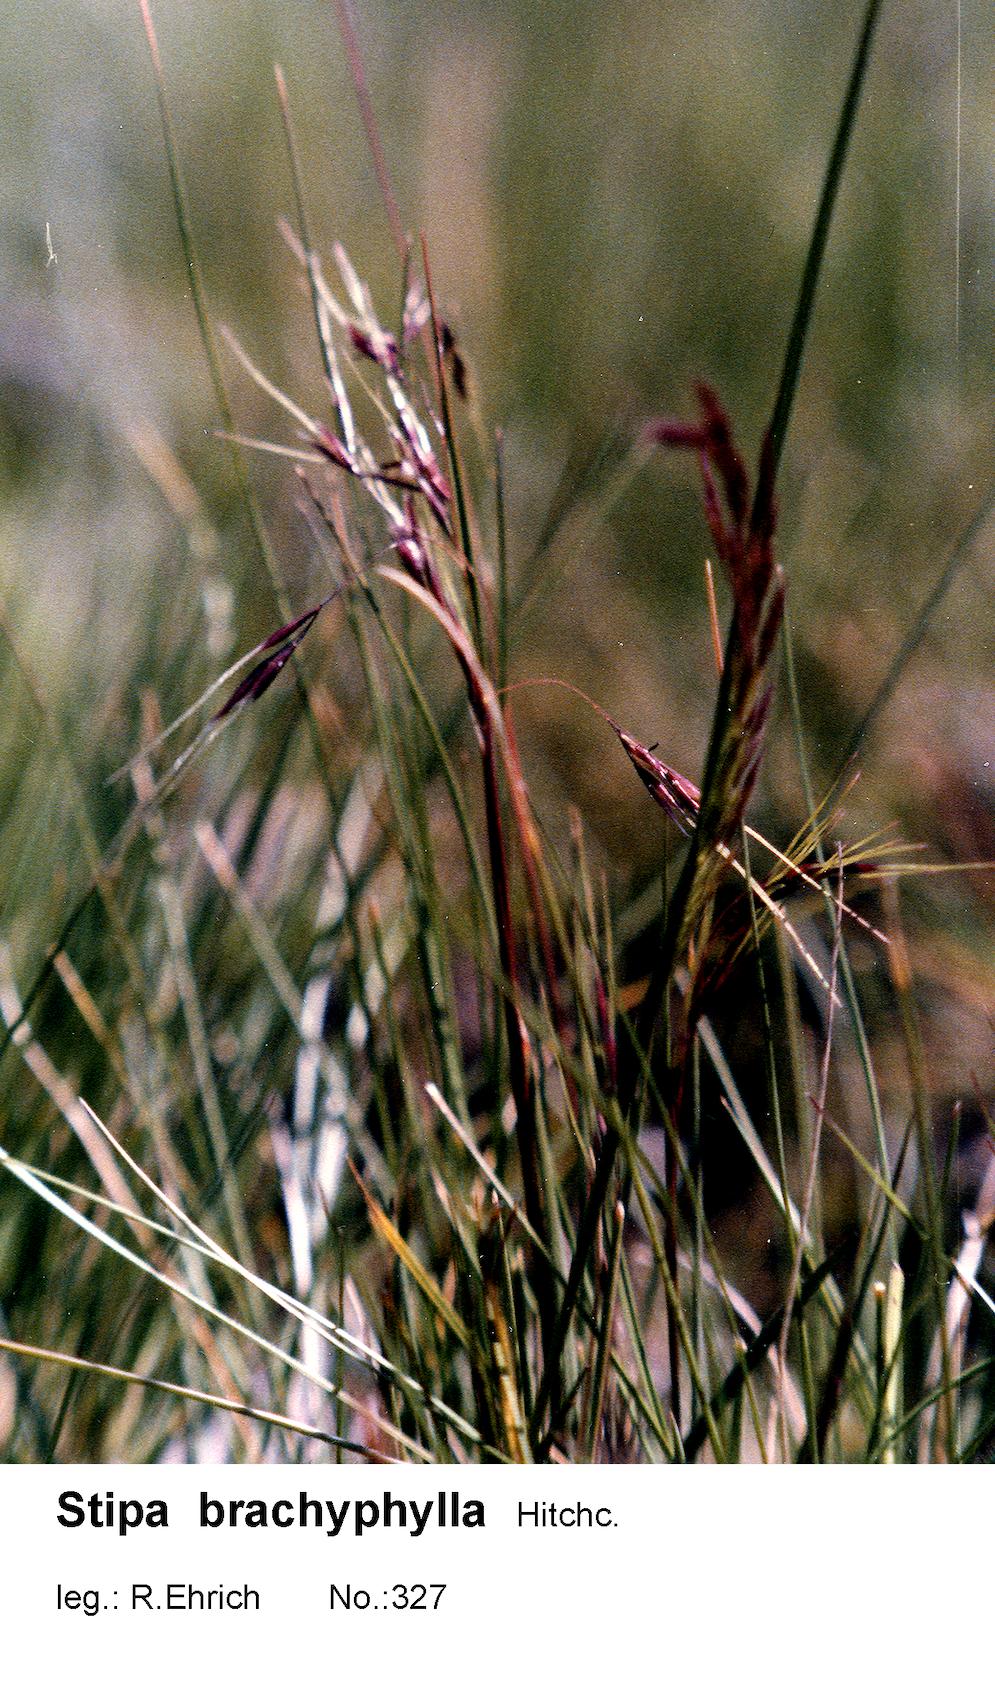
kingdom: Plantae
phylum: Tracheophyta
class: Liliopsida
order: Poales
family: Poaceae
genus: Nassella
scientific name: Nassella brachyphylla
